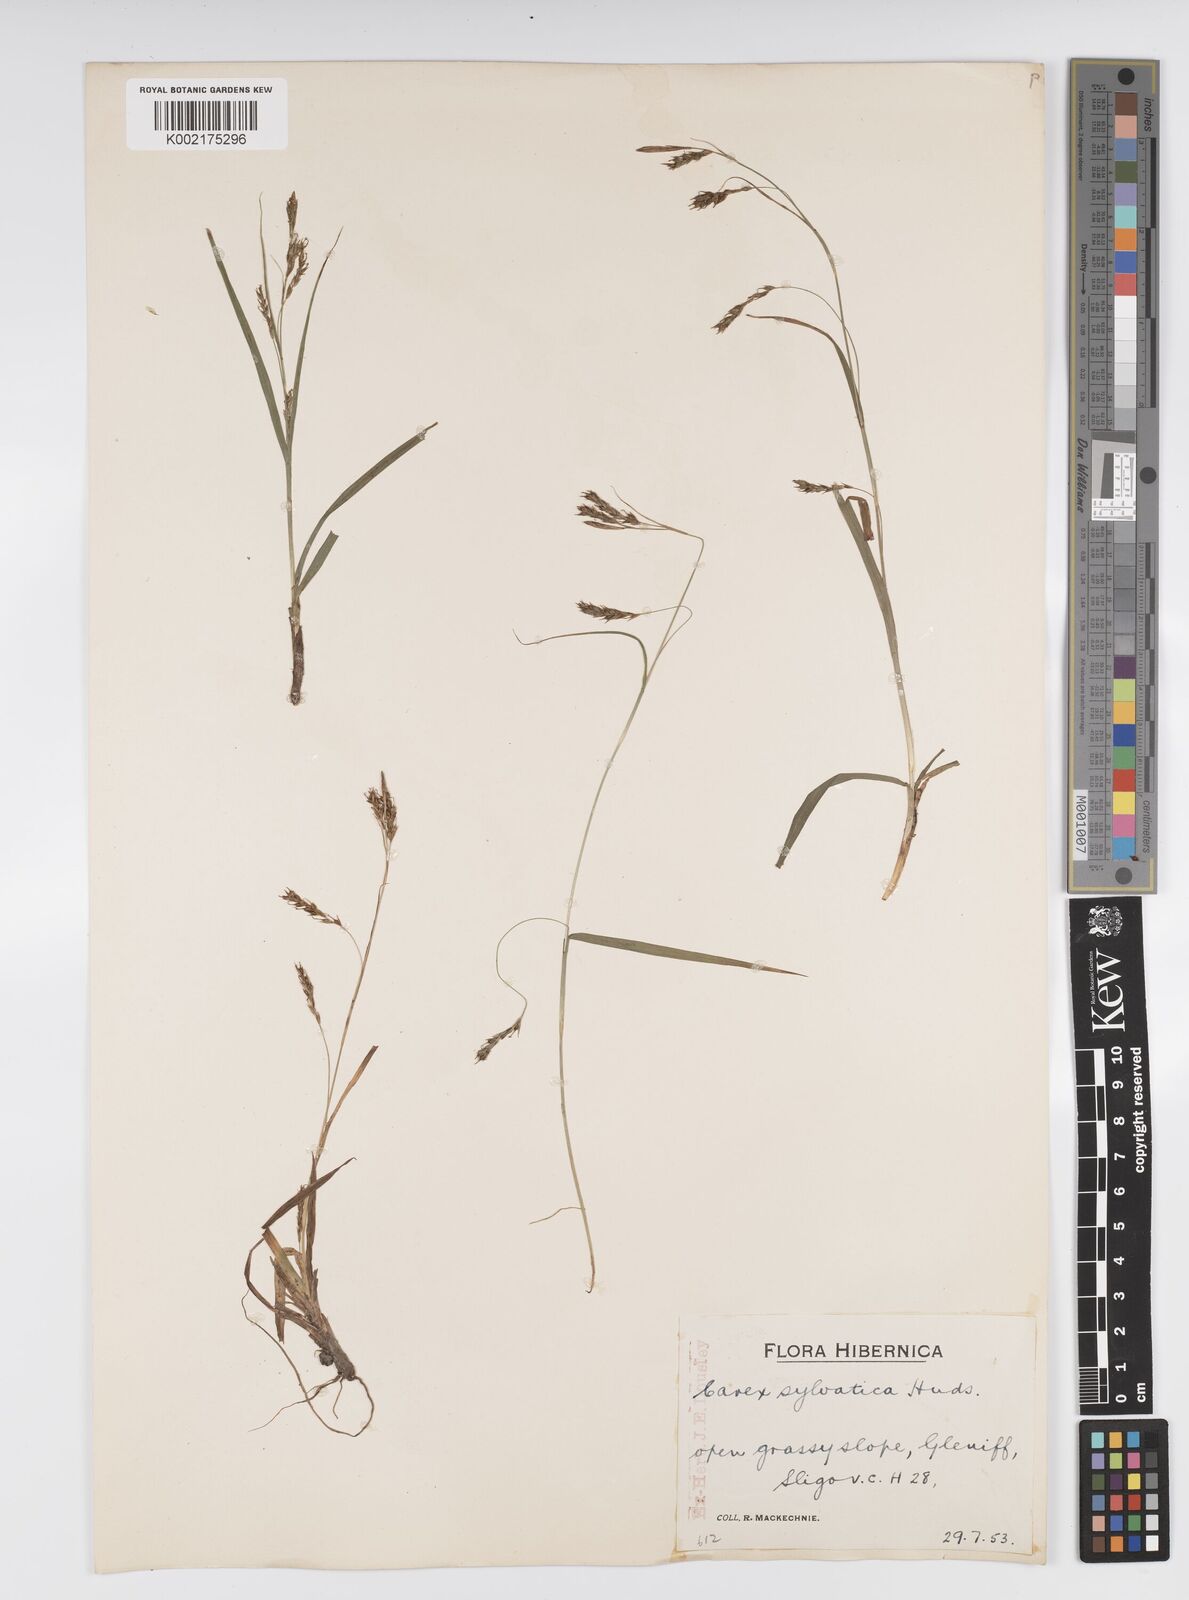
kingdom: Plantae
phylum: Tracheophyta
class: Liliopsida
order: Poales
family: Cyperaceae
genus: Carex
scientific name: Carex sylvatica
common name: Wood-sedge
